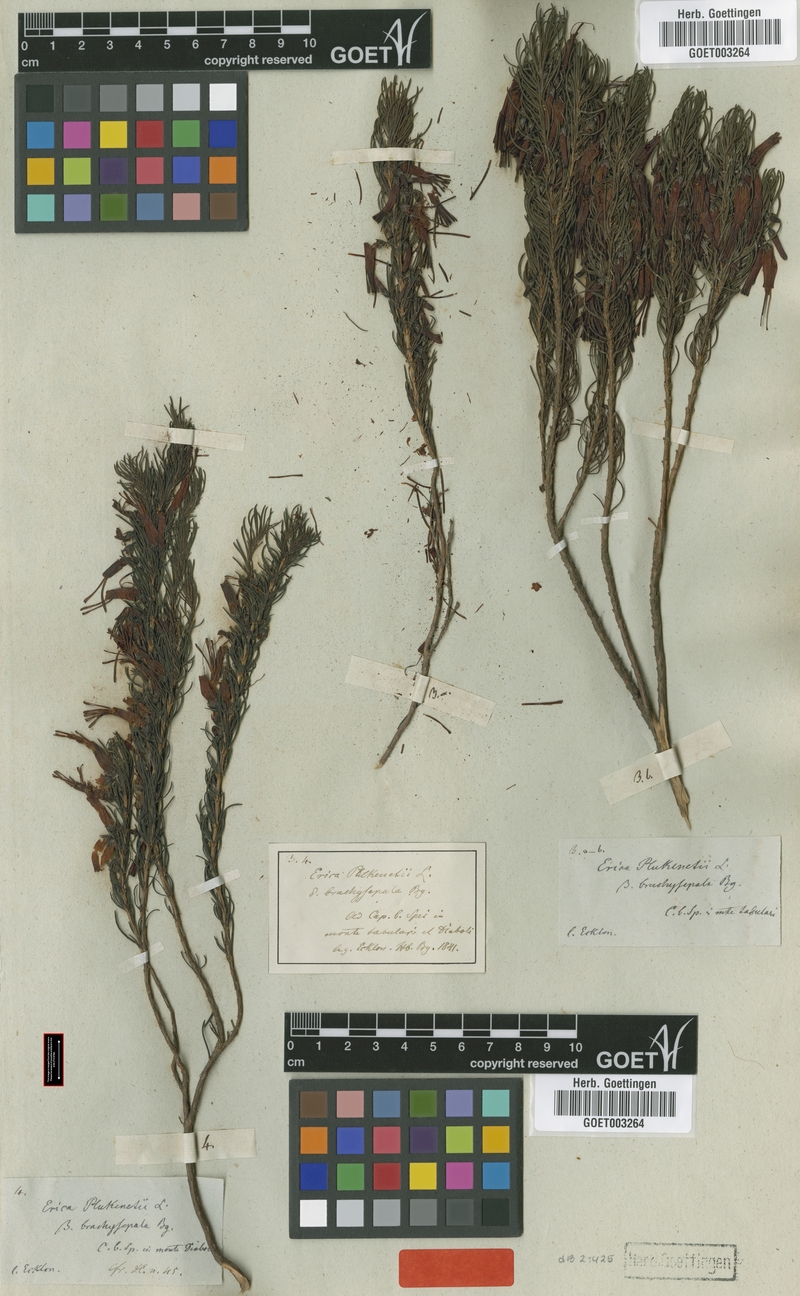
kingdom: Plantae
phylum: Tracheophyta
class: Magnoliopsida
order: Ericales
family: Ericaceae
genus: Erica
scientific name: Erica plukenetii
